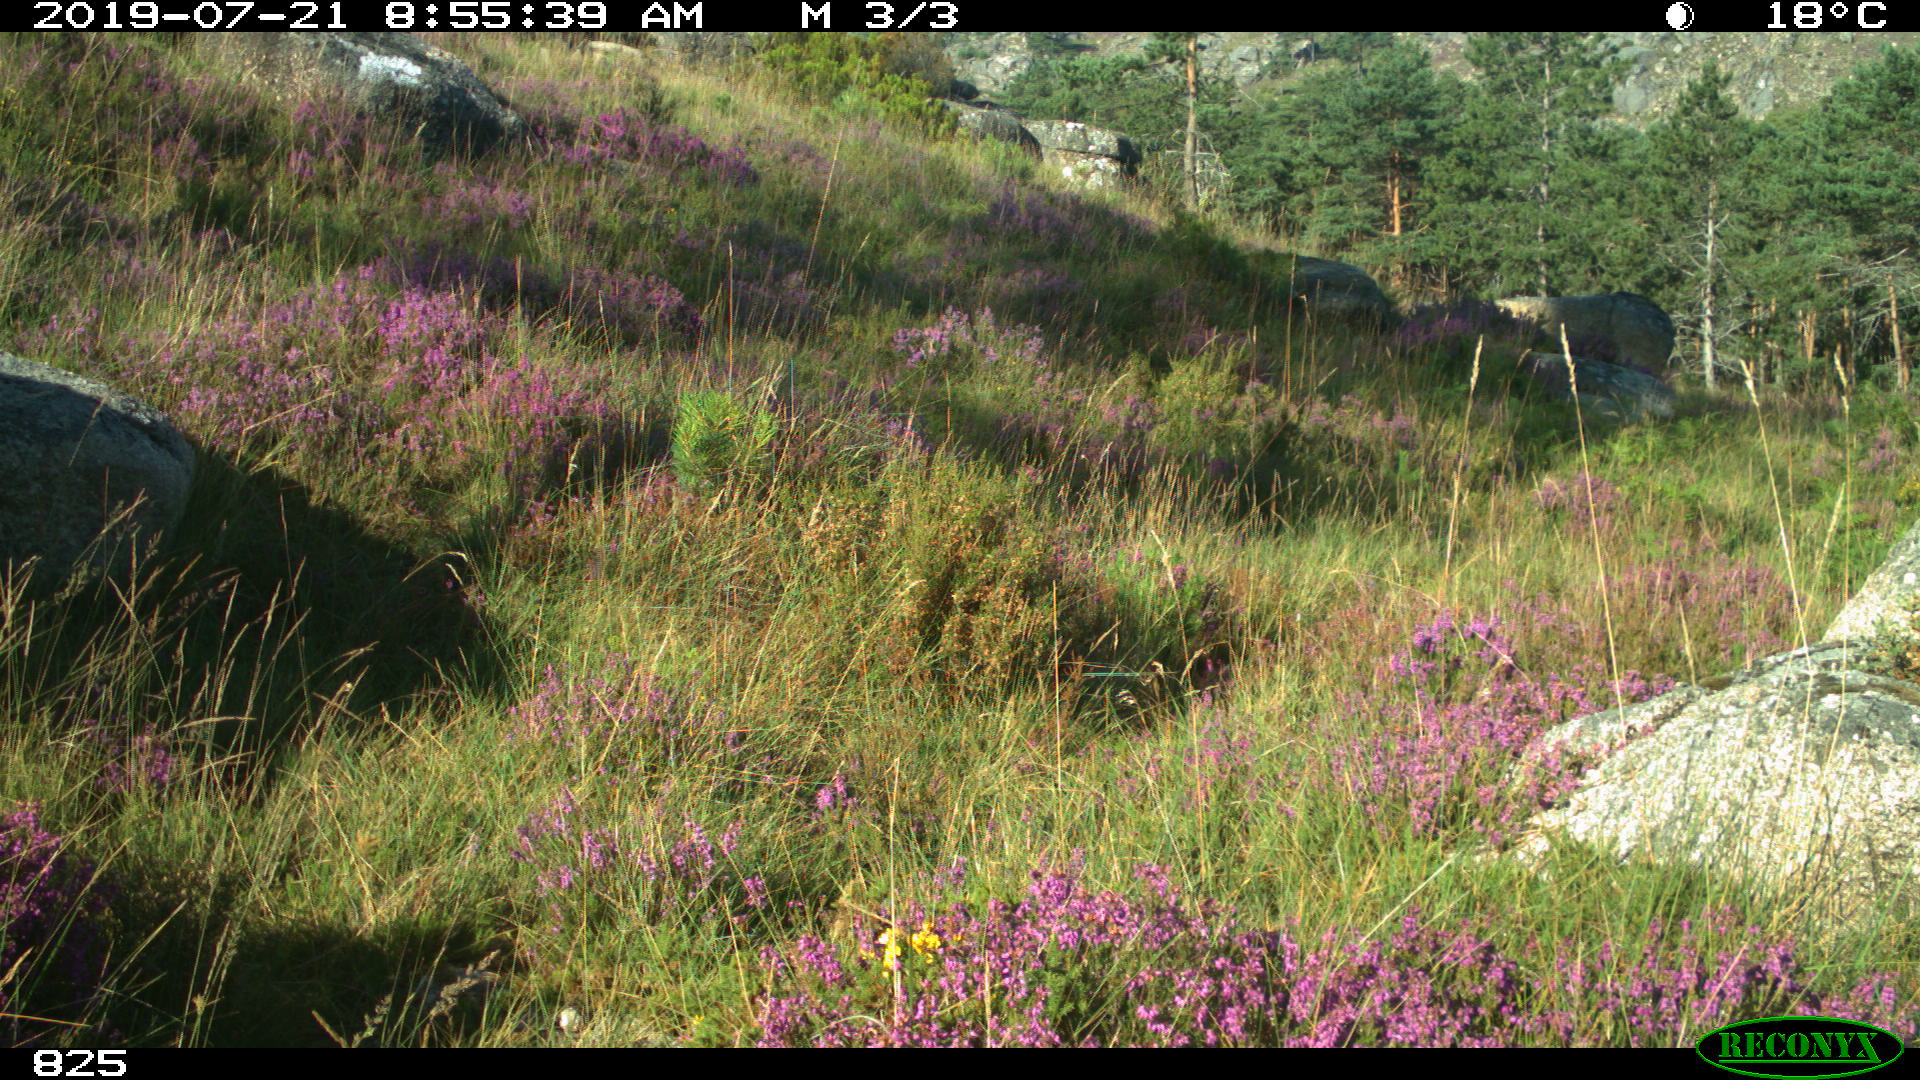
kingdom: Animalia
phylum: Chordata
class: Mammalia
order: Artiodactyla
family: Suidae
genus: Sus
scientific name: Sus scrofa
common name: Wild boar
